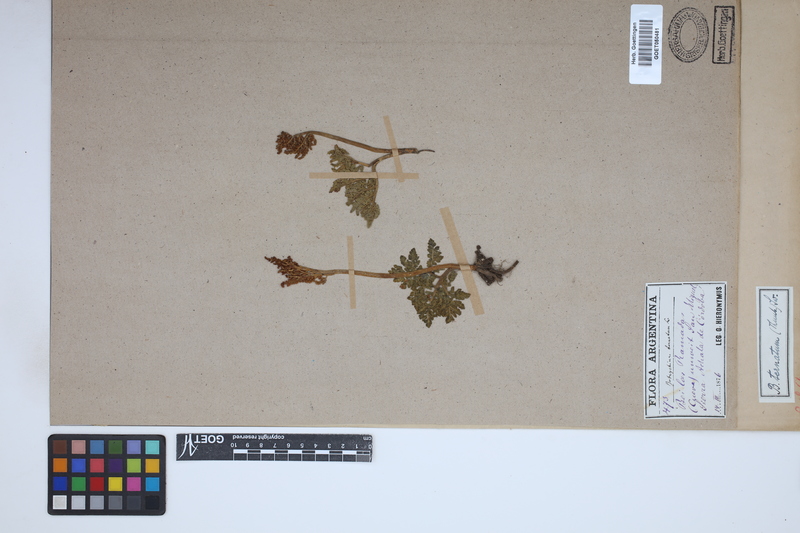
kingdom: Plantae
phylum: Tracheophyta
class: Polypodiopsida
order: Ophioglossales
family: Ophioglossaceae
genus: Sceptridium
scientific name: Sceptridium
